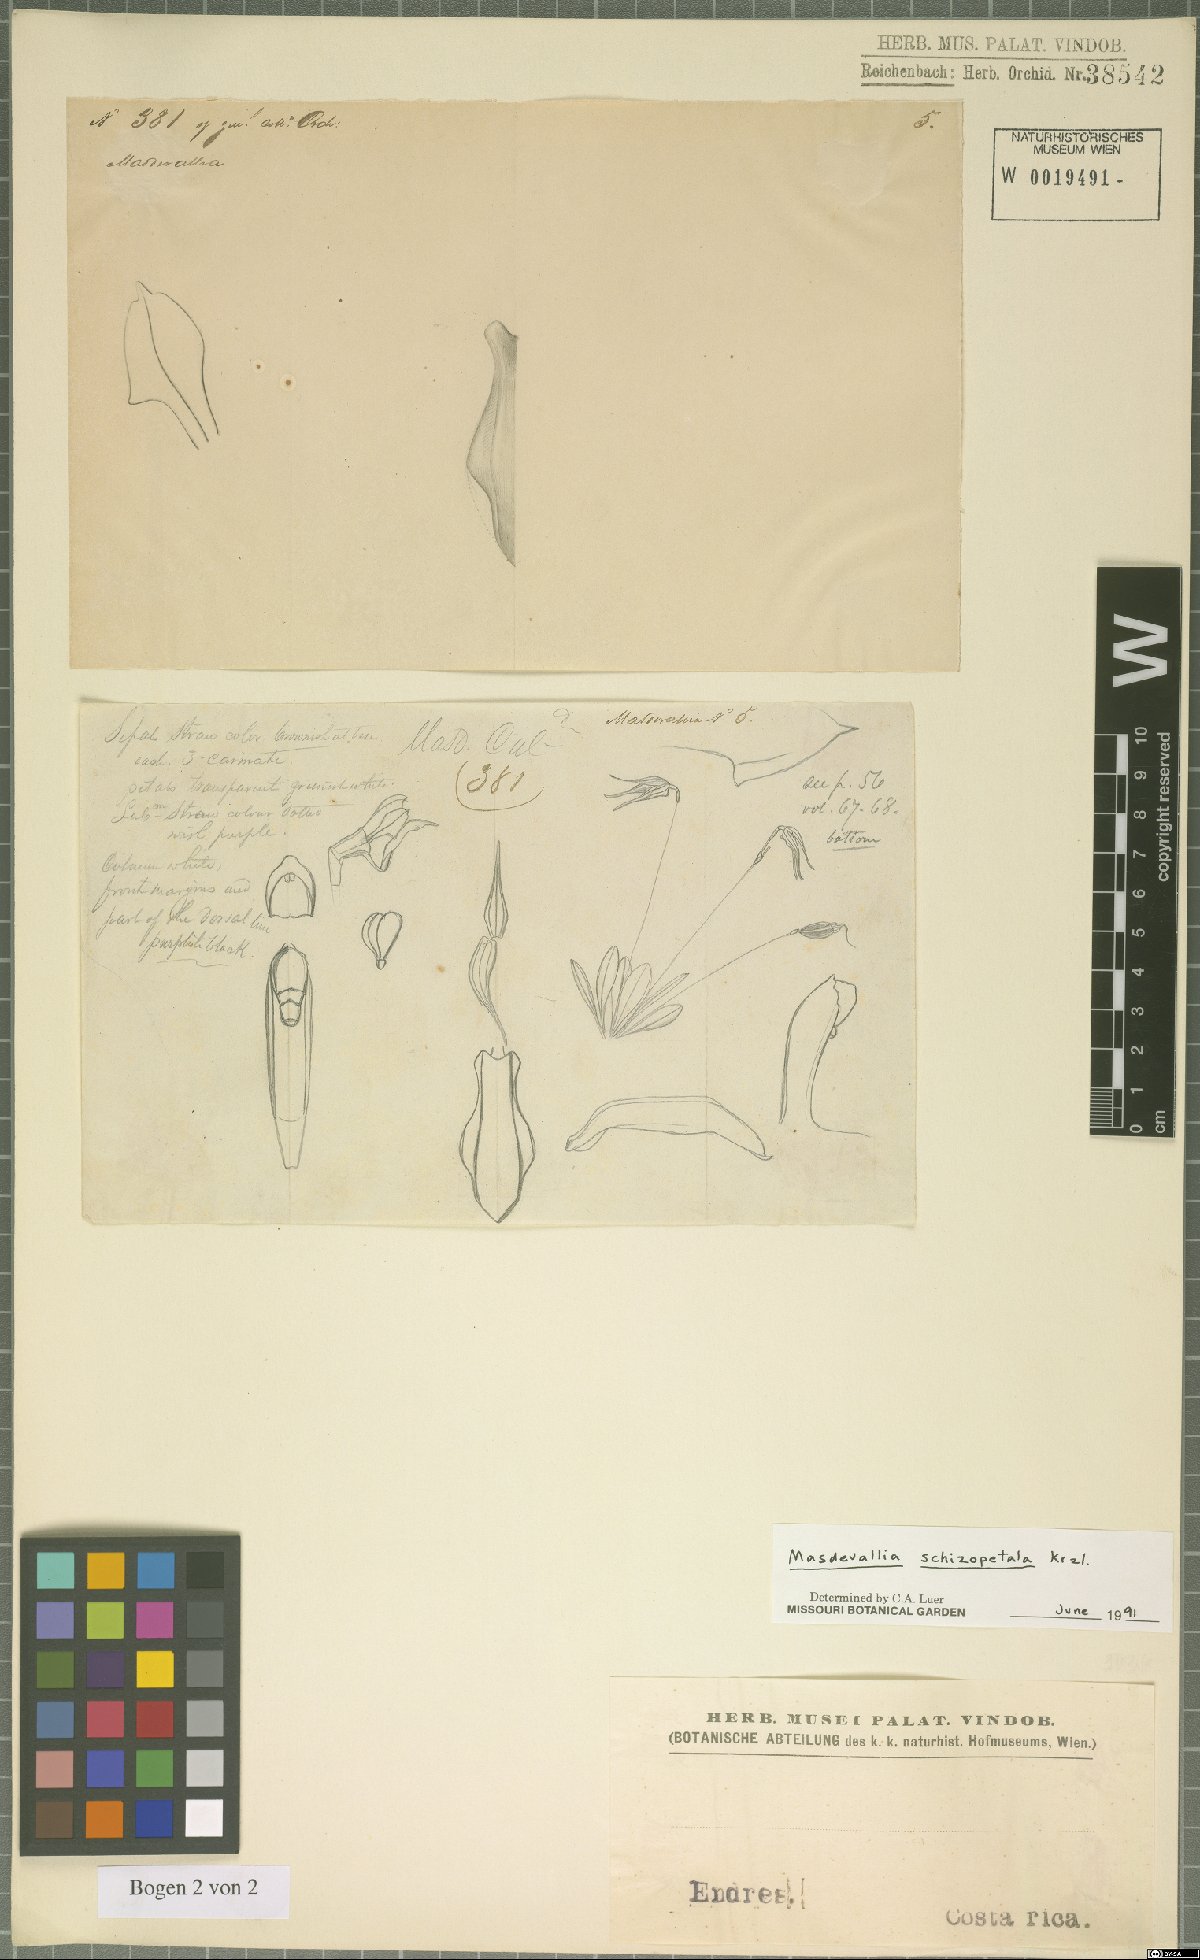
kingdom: Plantae
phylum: Tracheophyta
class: Liliopsida
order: Asparagales
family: Orchidaceae
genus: Masdevallia
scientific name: Masdevallia schizopetala
